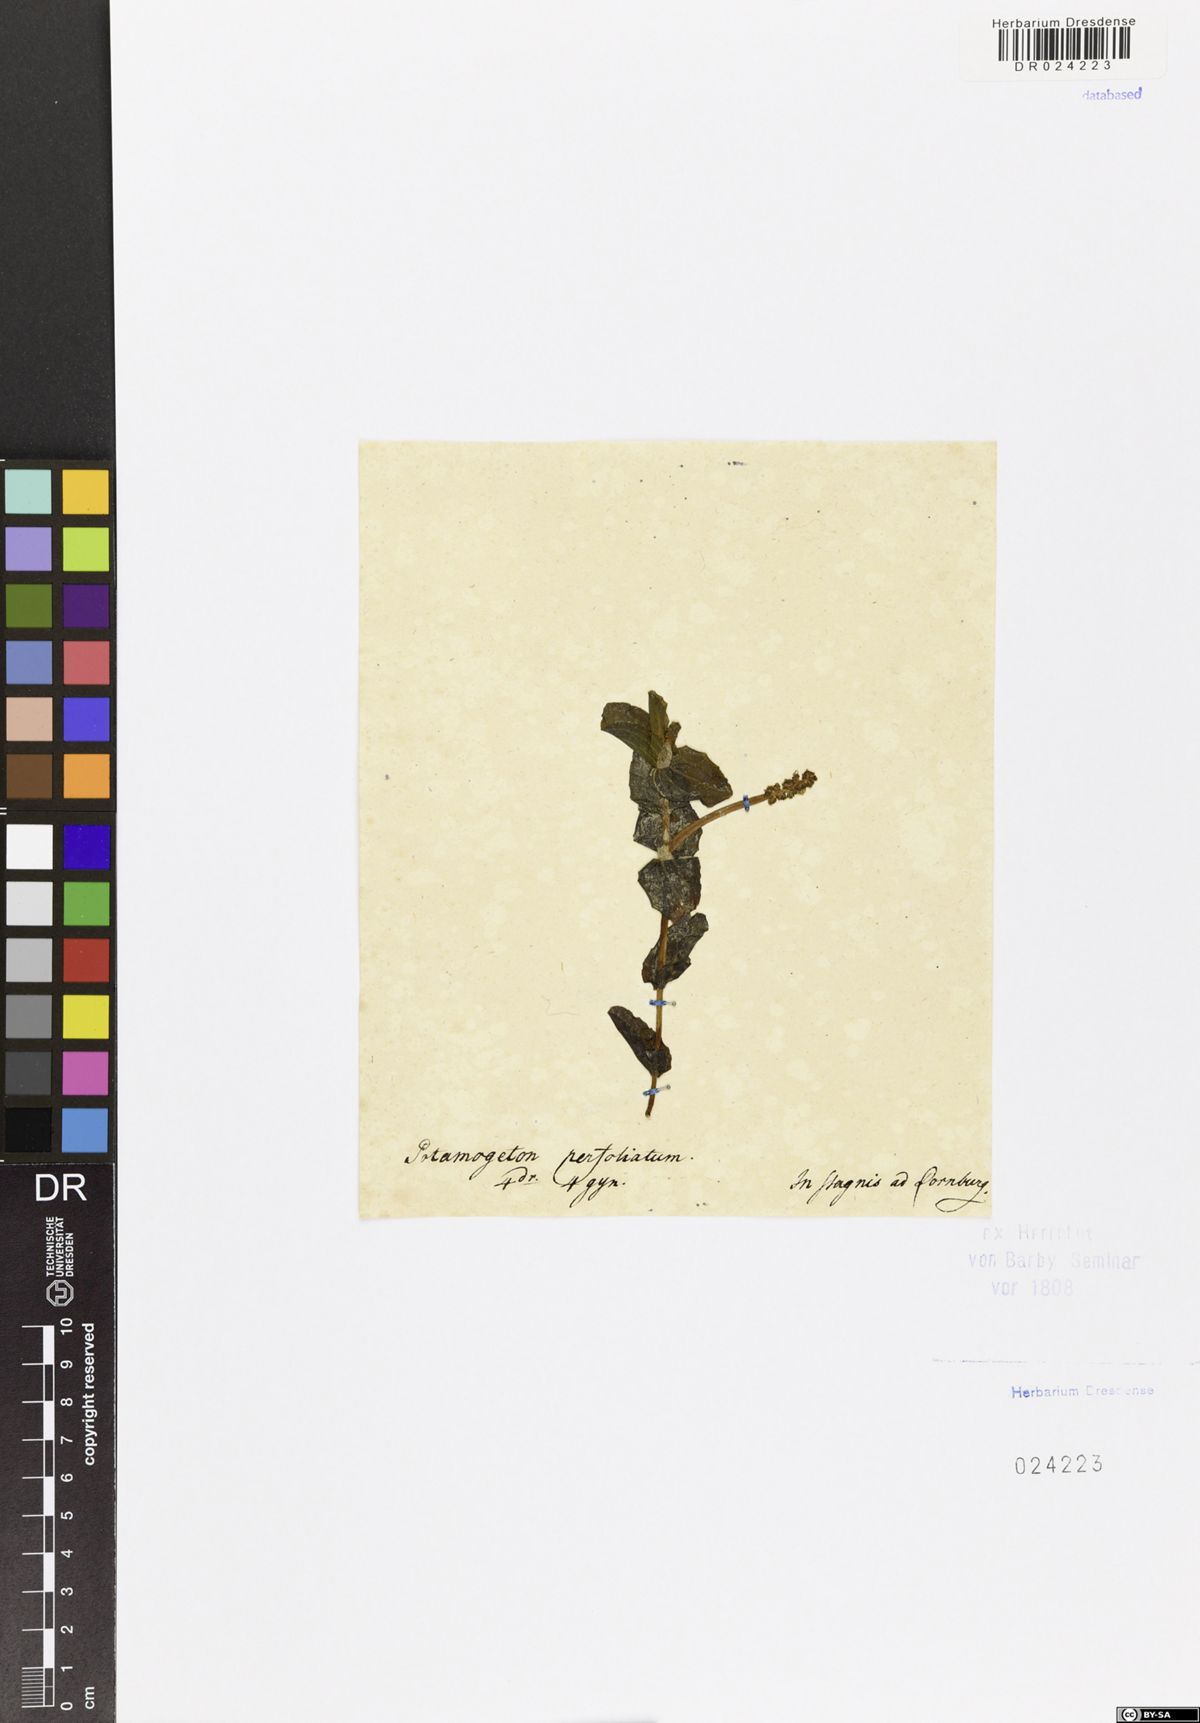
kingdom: Plantae
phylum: Tracheophyta
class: Liliopsida
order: Alismatales
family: Potamogetonaceae
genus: Potamogeton
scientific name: Potamogeton perfoliatus
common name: Perfoliate pondweed
